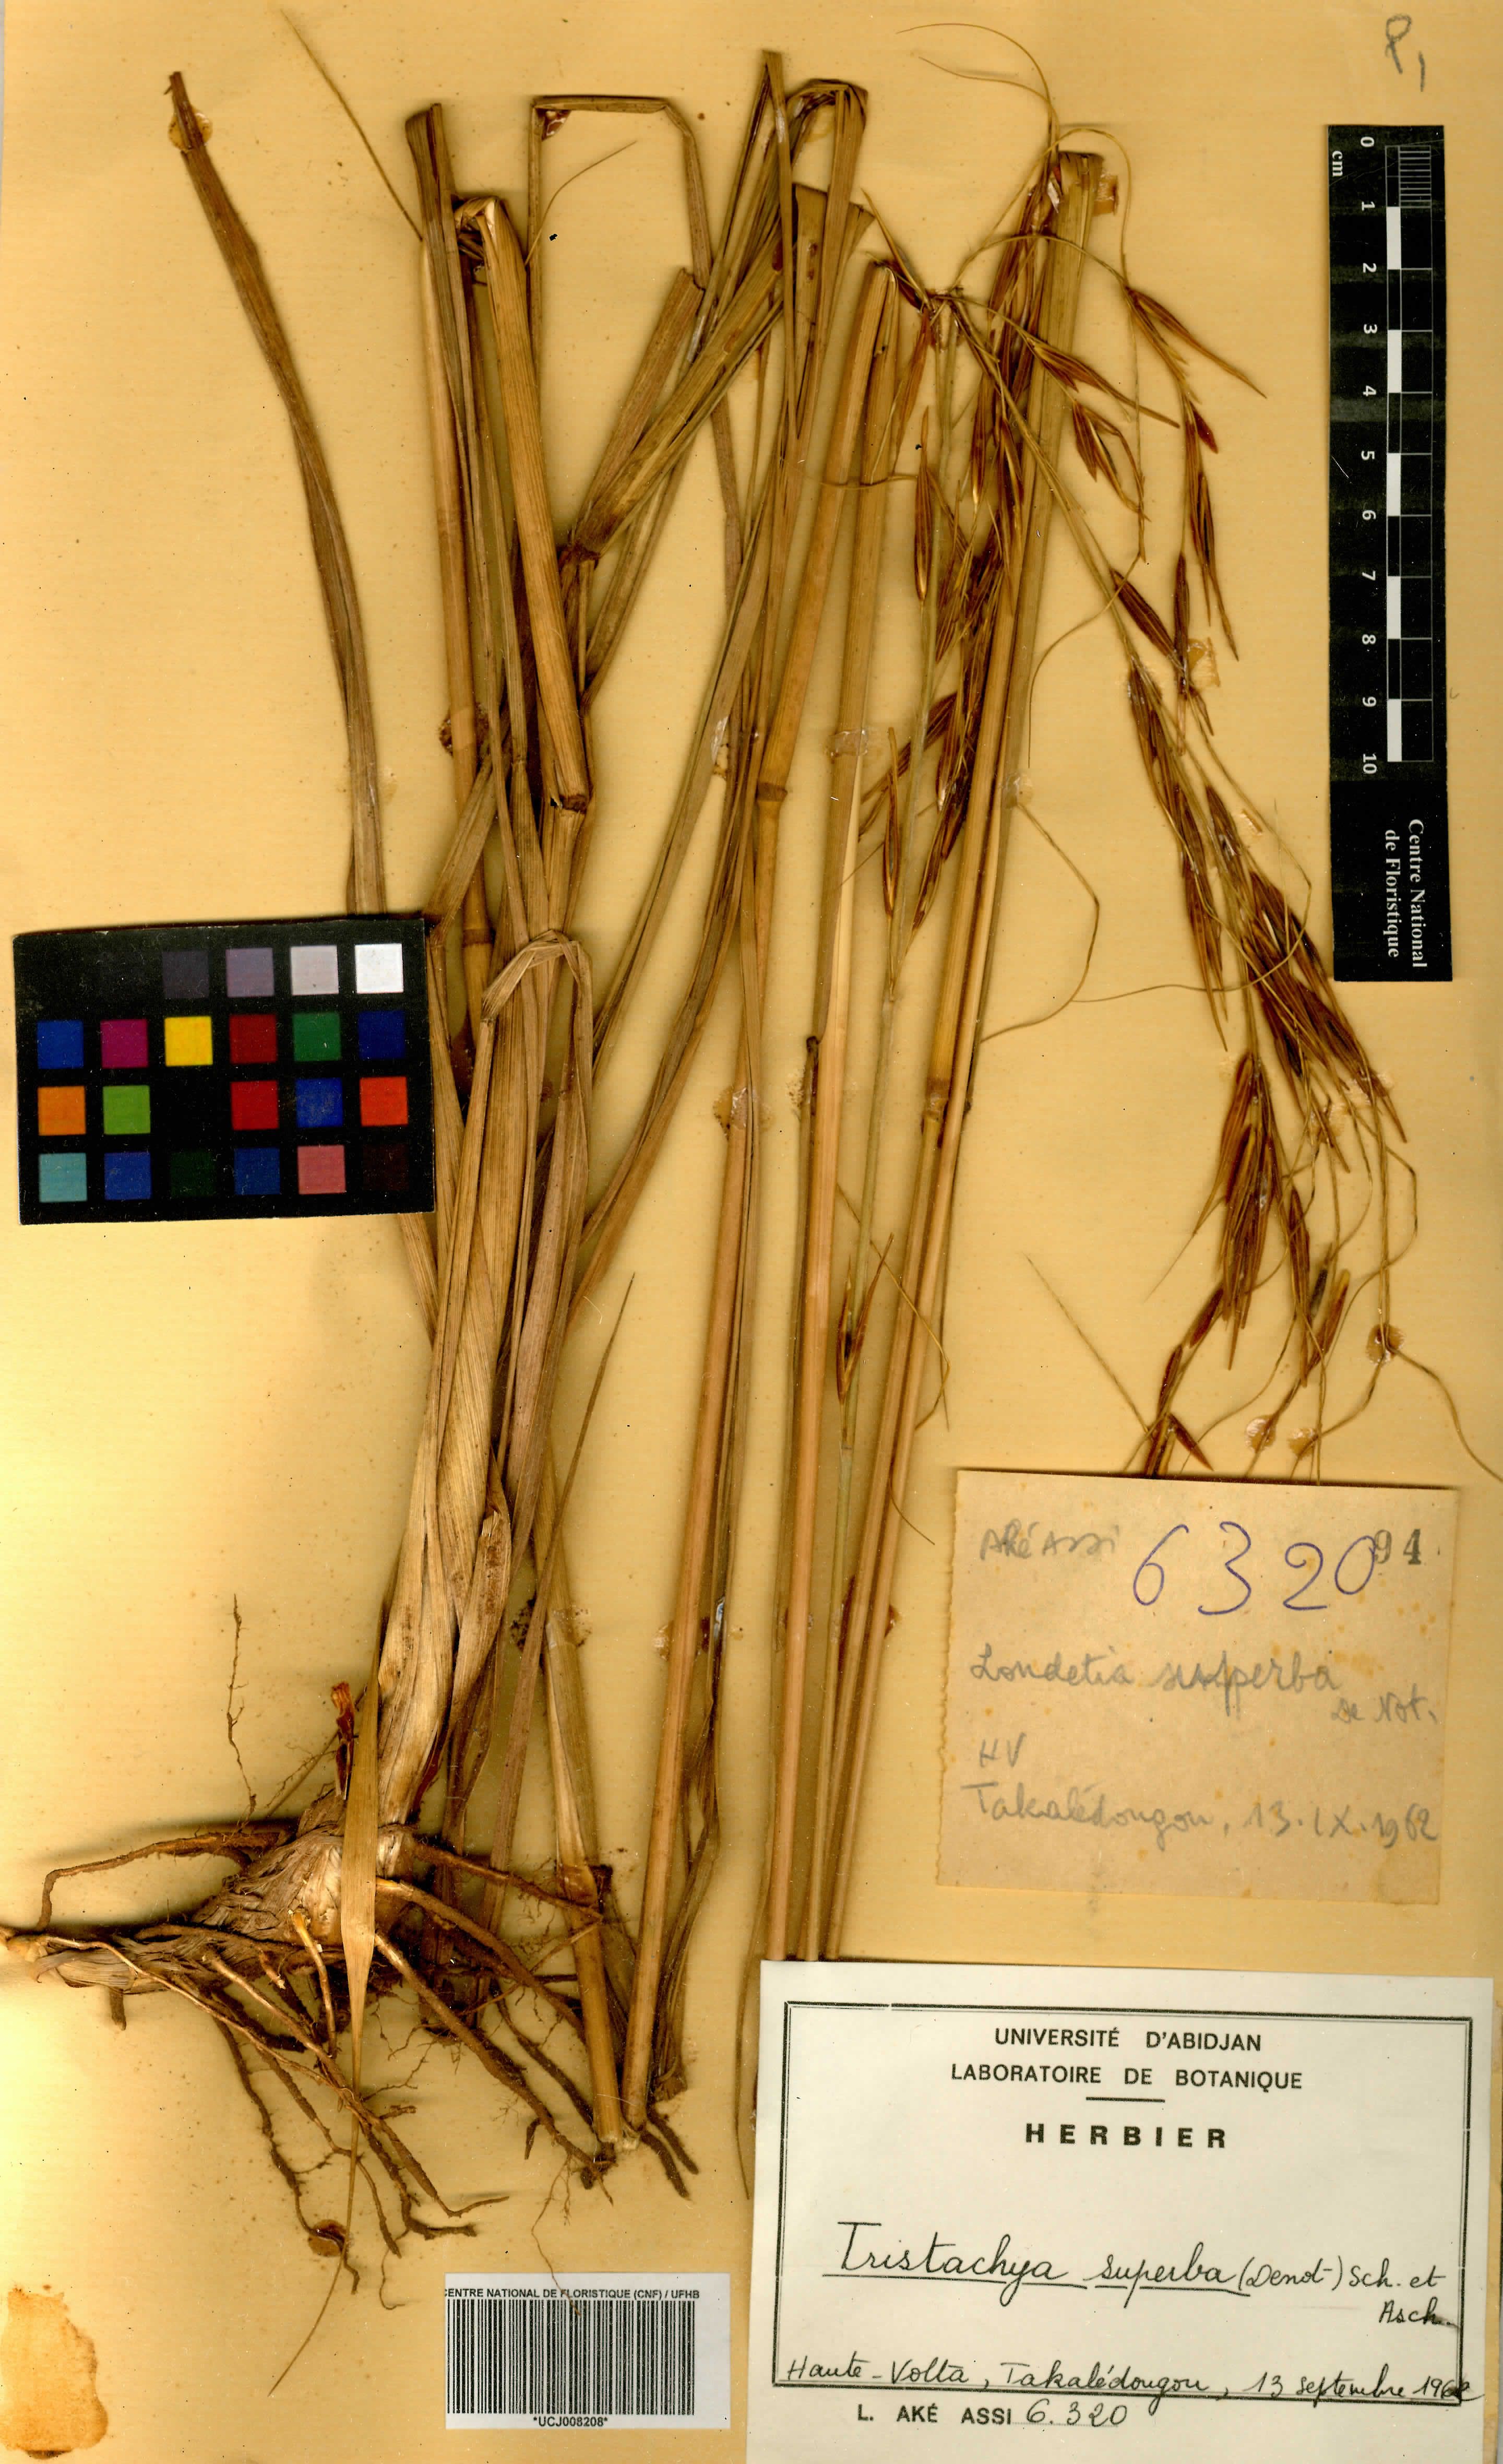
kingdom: Plantae
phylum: Tracheophyta
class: Liliopsida
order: Poales
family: Poaceae
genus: Tristachya
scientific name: Tristachya superba
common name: Giant trident grass
